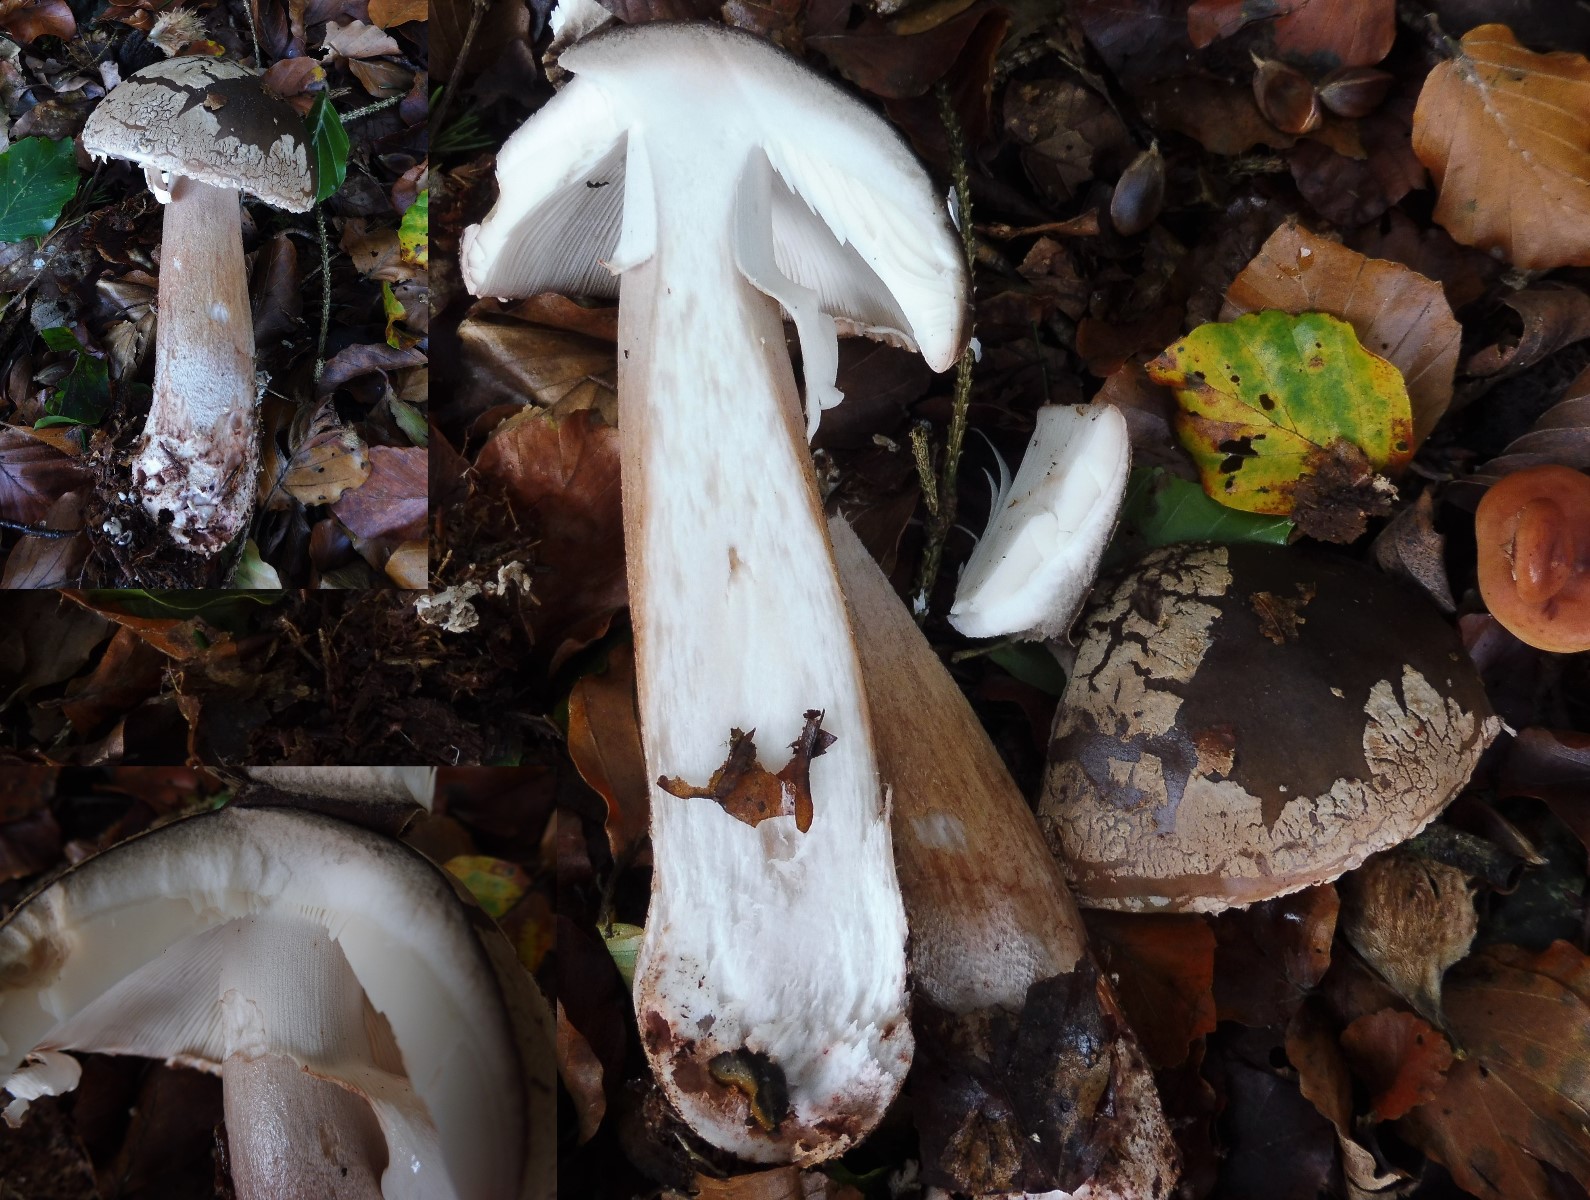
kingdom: Fungi
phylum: Basidiomycota
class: Agaricomycetes
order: Agaricales
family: Amanitaceae
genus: Amanita
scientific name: Amanita rubescens
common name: rødmende fluesvamp
